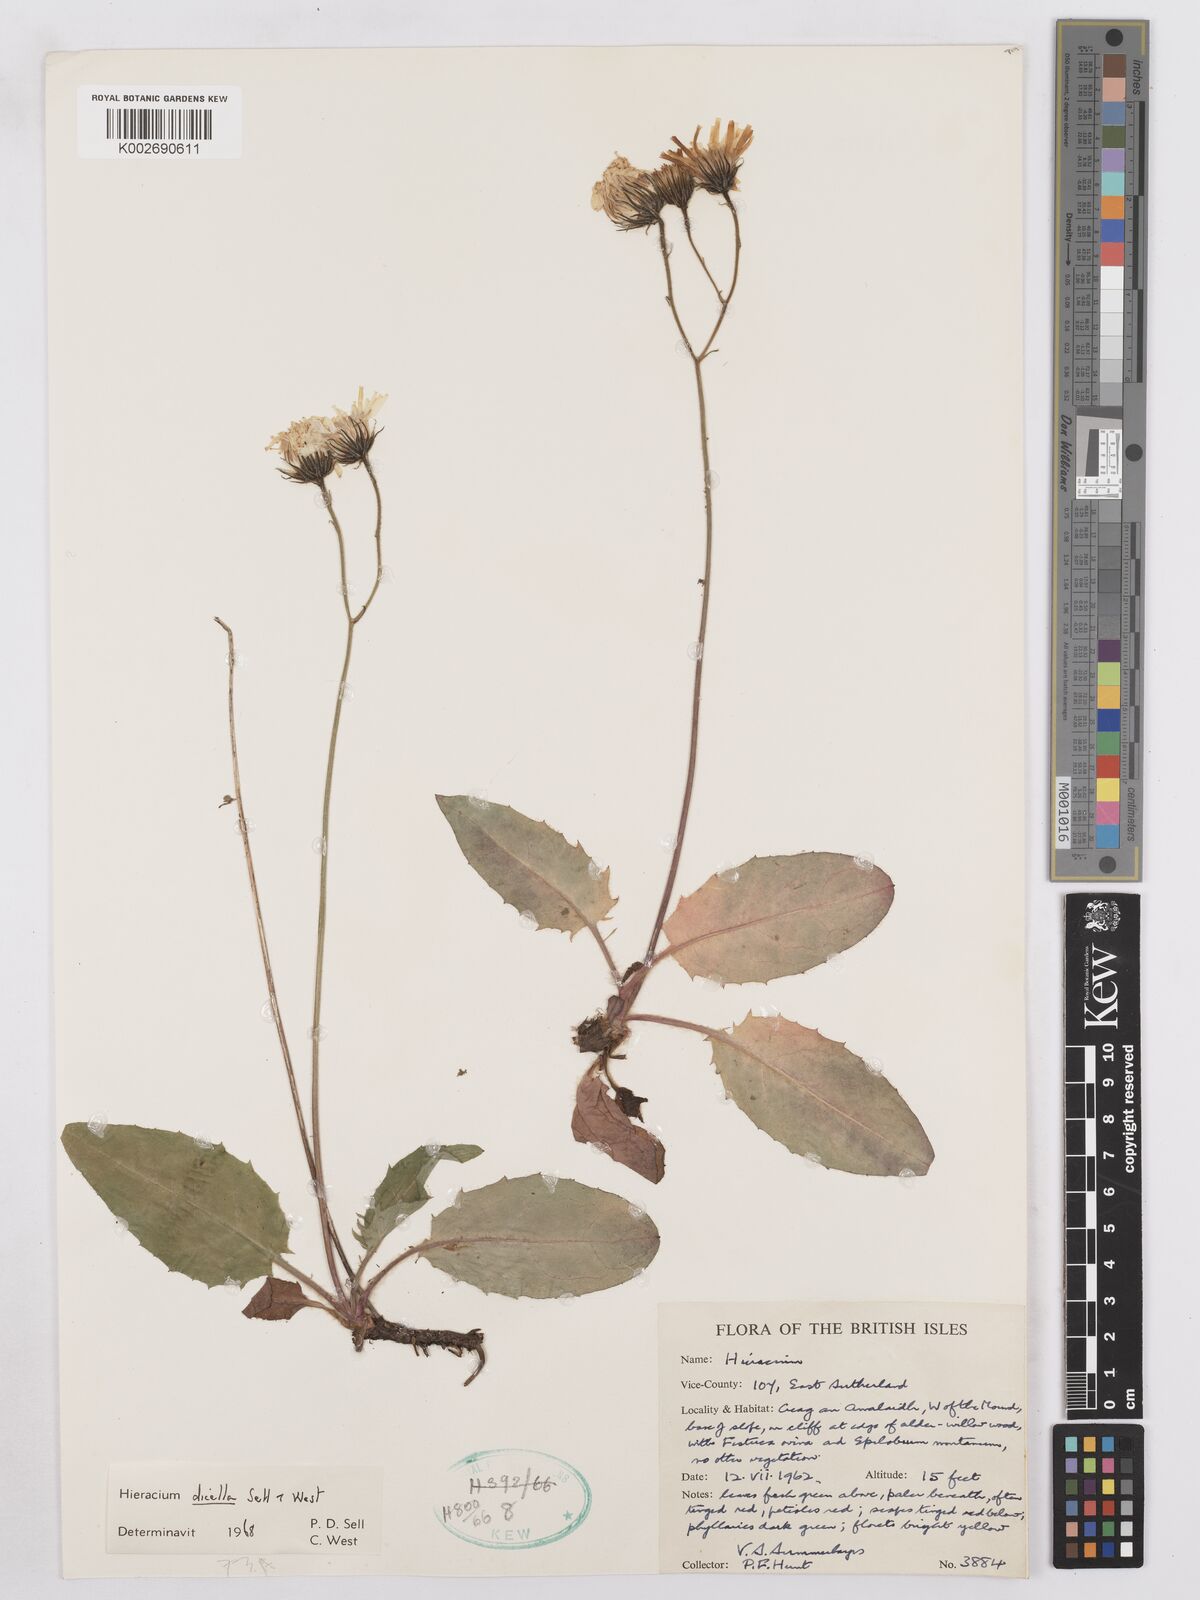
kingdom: Plantae
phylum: Tracheophyta
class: Magnoliopsida
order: Asterales
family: Asteraceae
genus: Hieracium
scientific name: Hieracium dicella
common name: Forked hawkweed
